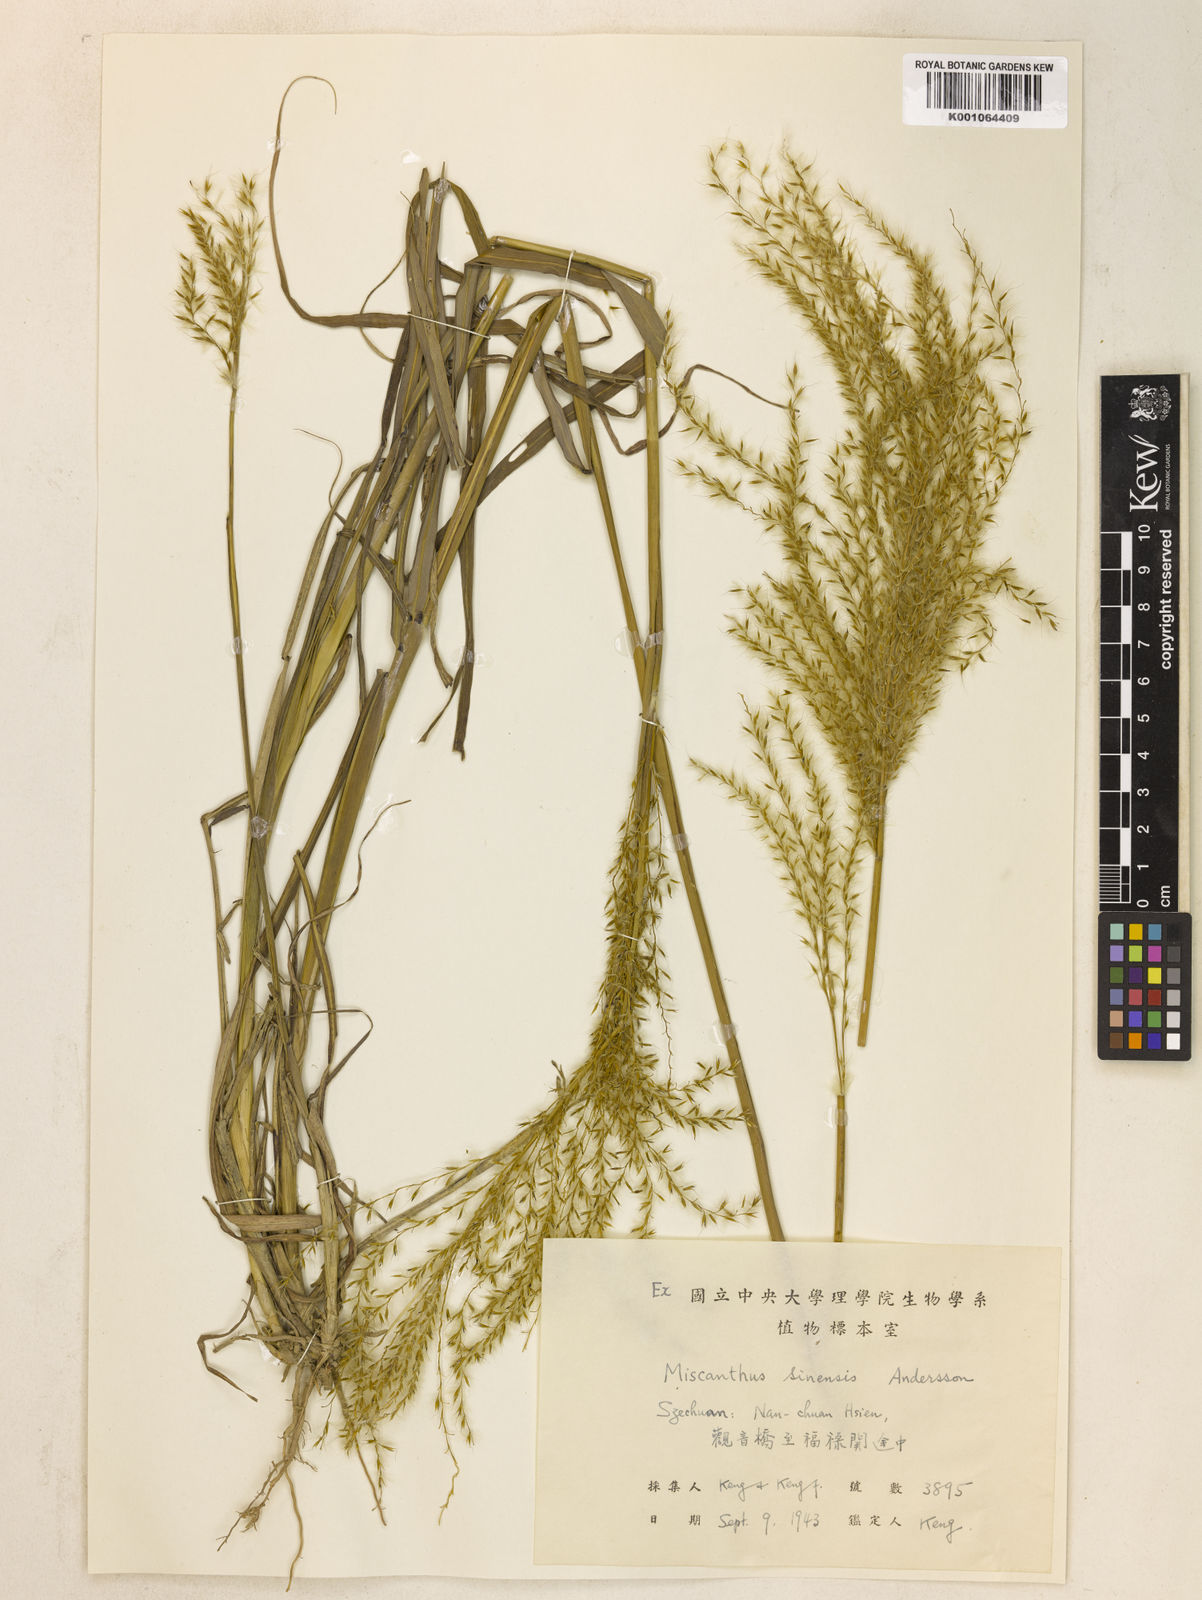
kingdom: Plantae
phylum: Tracheophyta
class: Liliopsida
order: Poales
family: Poaceae
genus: Miscanthus
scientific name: Miscanthus sinensis
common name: Chinese silvergrass
